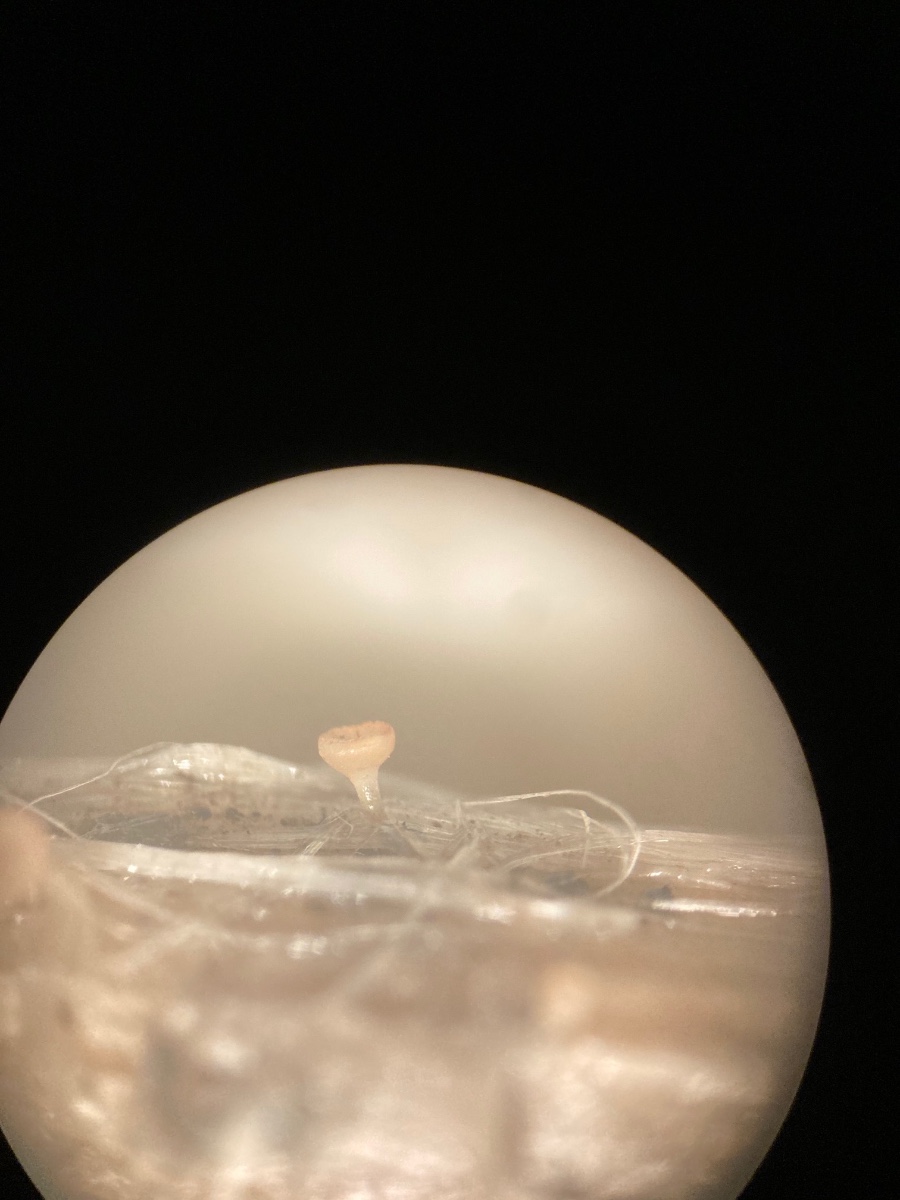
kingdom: Fungi
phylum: Ascomycota
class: Leotiomycetes
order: Helotiales
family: Helotiaceae
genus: Cyathicula
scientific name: Cyathicula cyathoidea
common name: pokal-stilkskive
